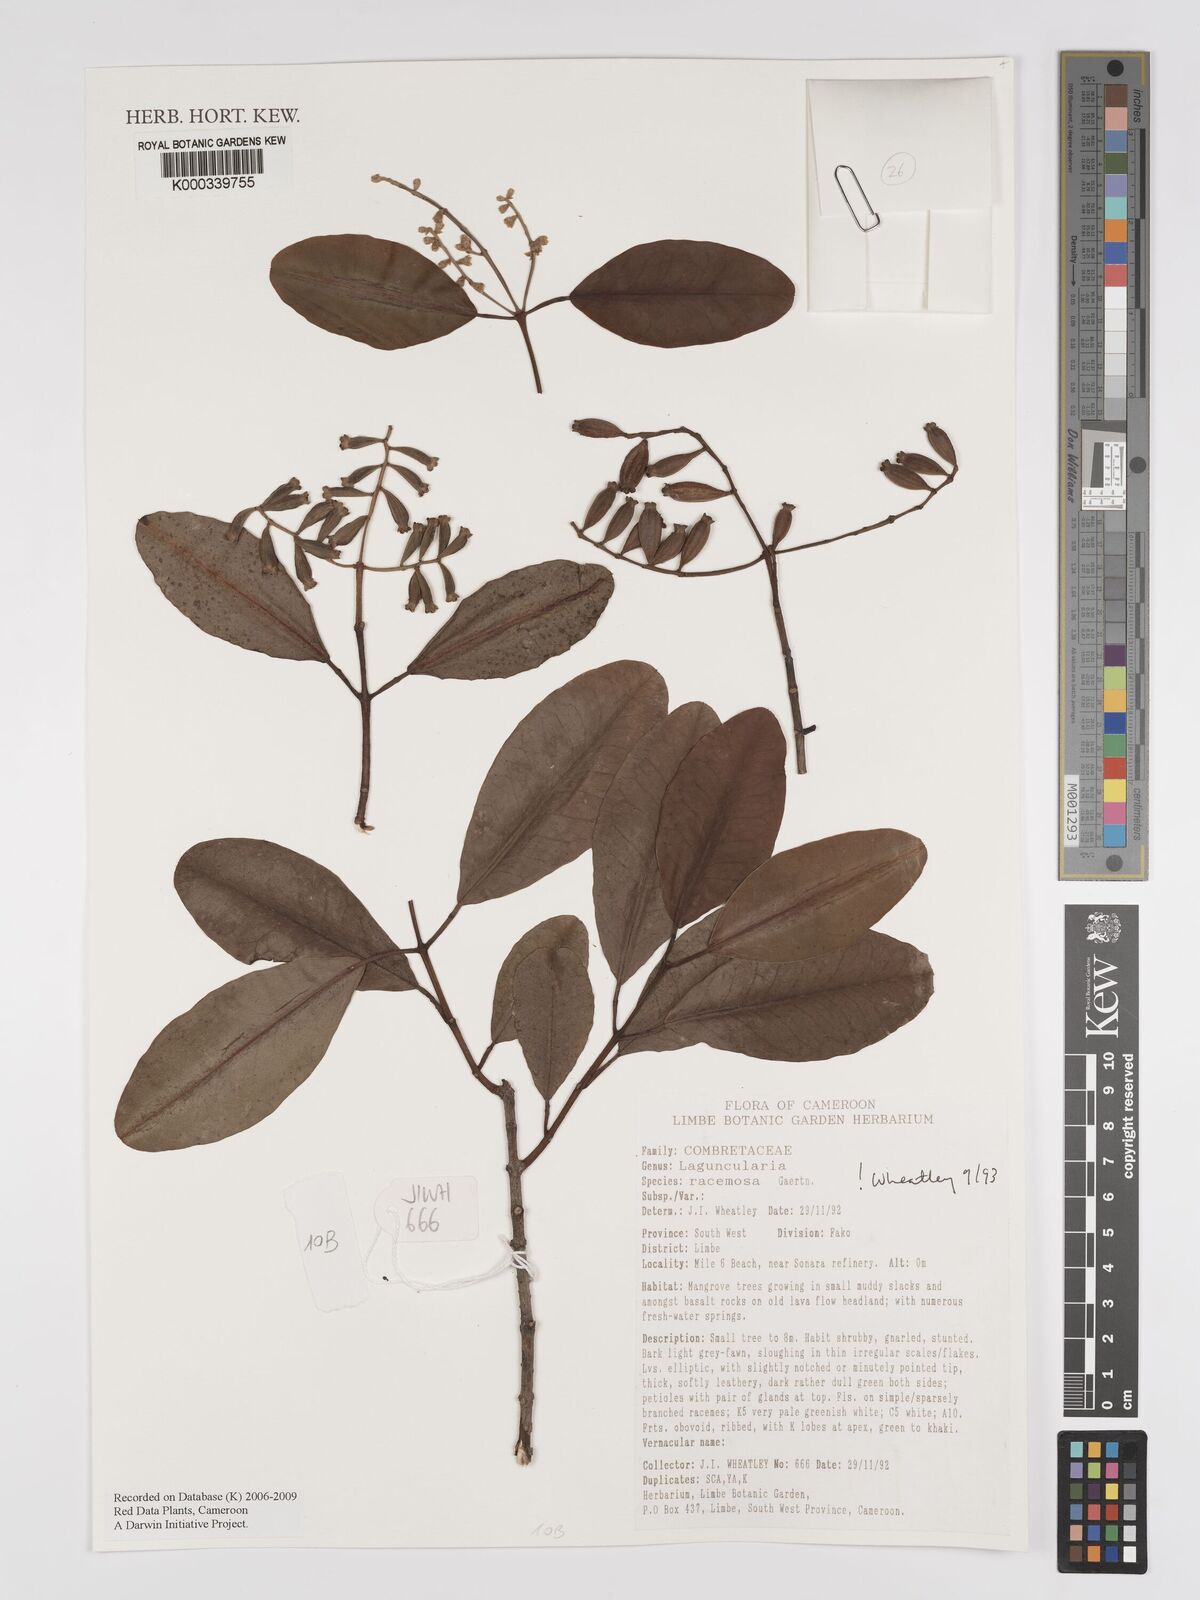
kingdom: Plantae
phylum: Tracheophyta
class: Magnoliopsida
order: Myrtales
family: Combretaceae
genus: Laguncularia
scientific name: Laguncularia racemosa
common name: White mangrove
